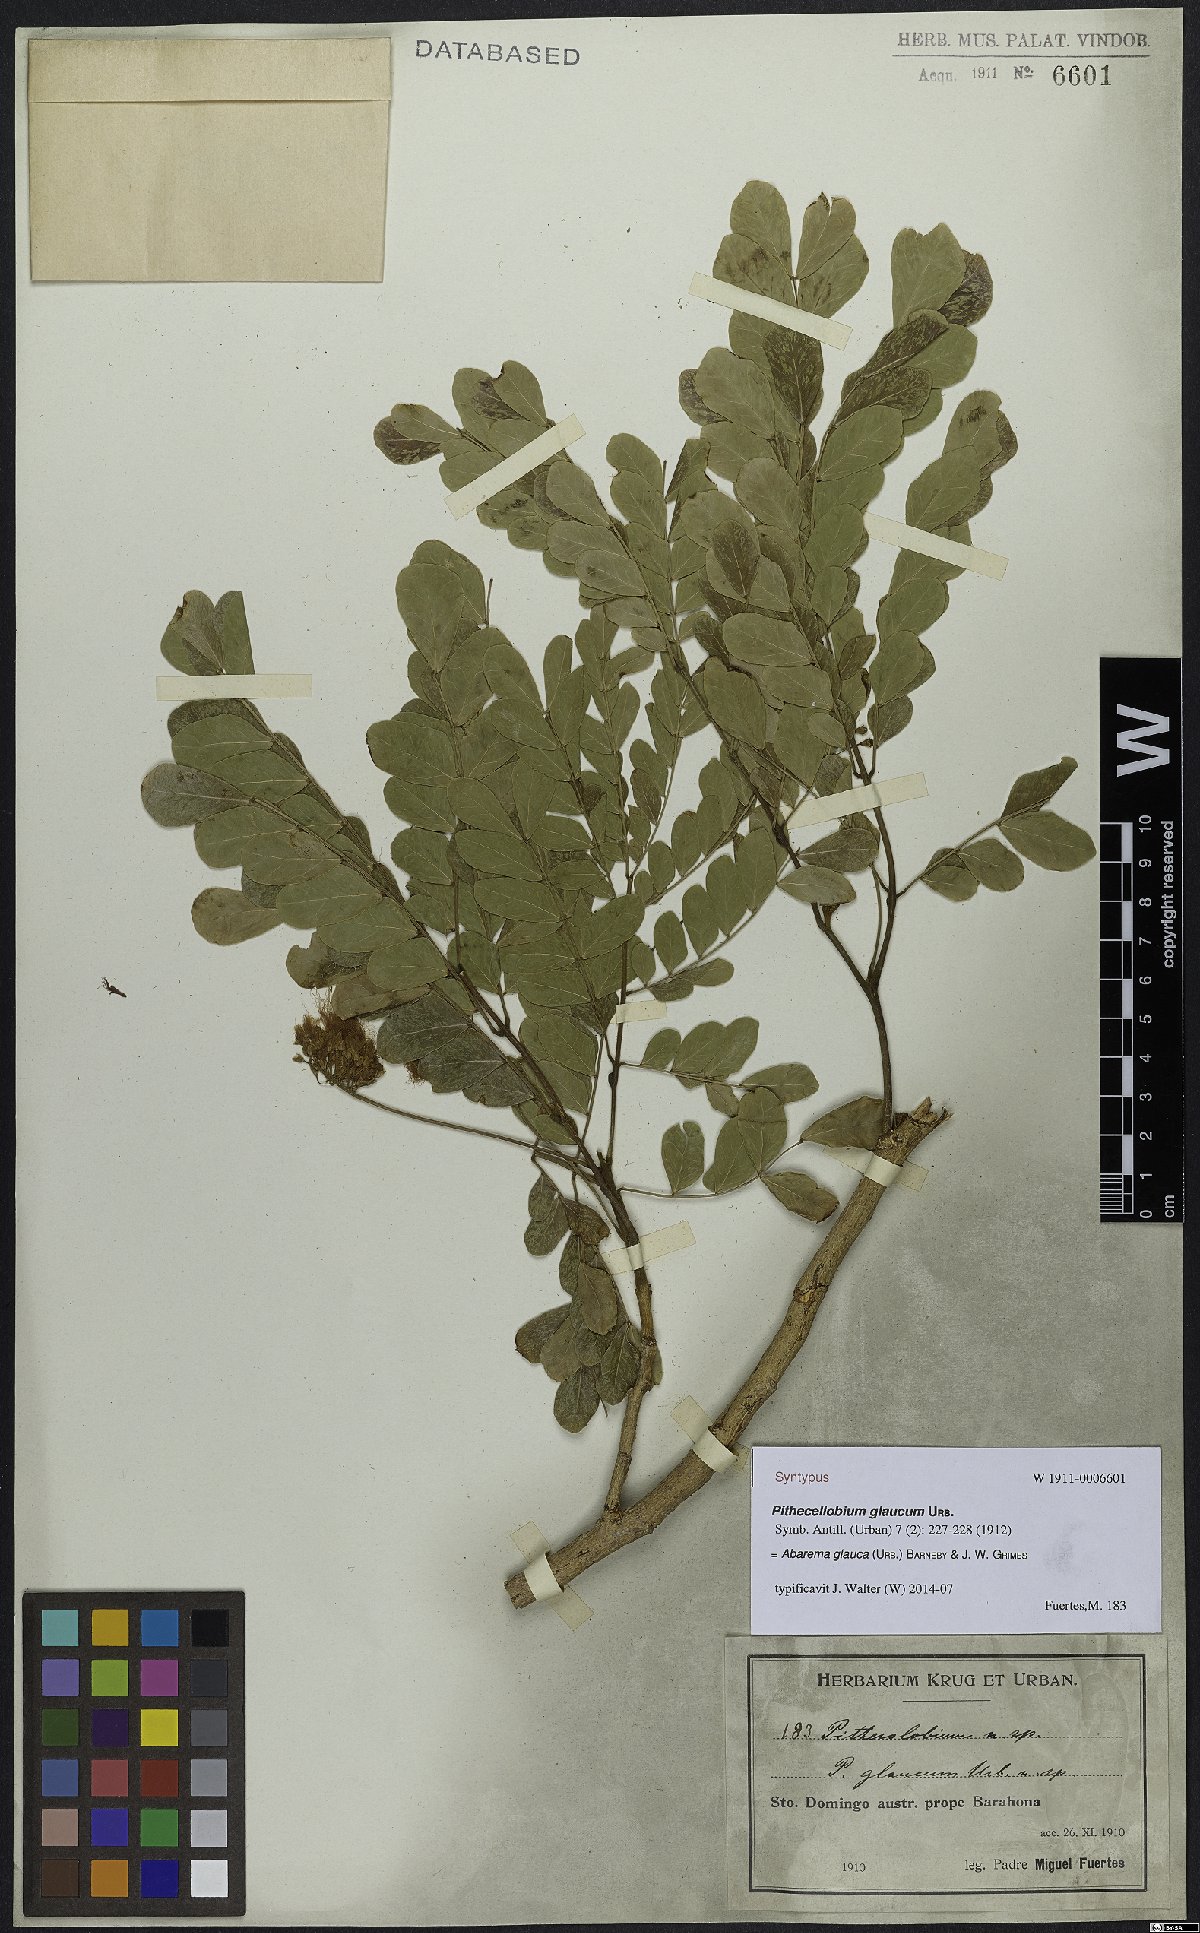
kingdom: Plantae
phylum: Tracheophyta
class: Magnoliopsida
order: Fabales
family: Fabaceae
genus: Jupunba
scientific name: Jupunba glauca
